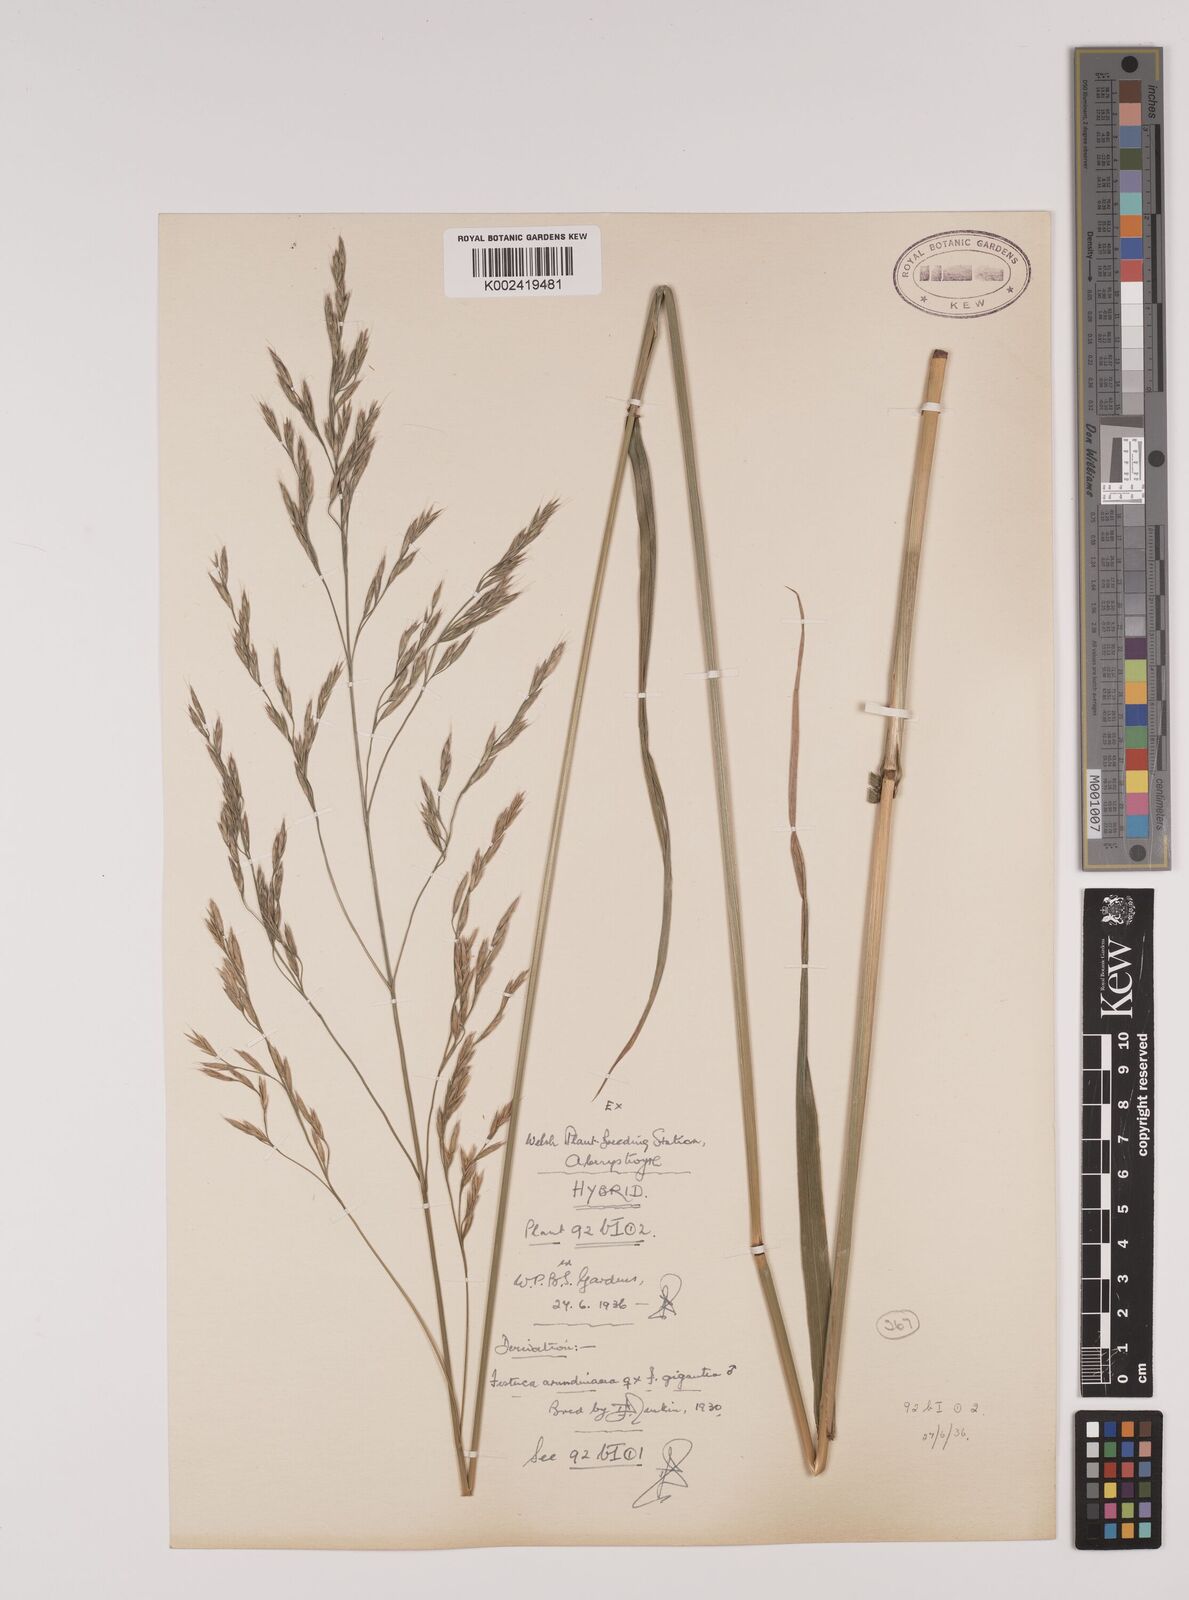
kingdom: Plantae
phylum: Tracheophyta
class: Liliopsida
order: Poales
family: Poaceae
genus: Lolium
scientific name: Lolium giganteum
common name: Giant fescue
